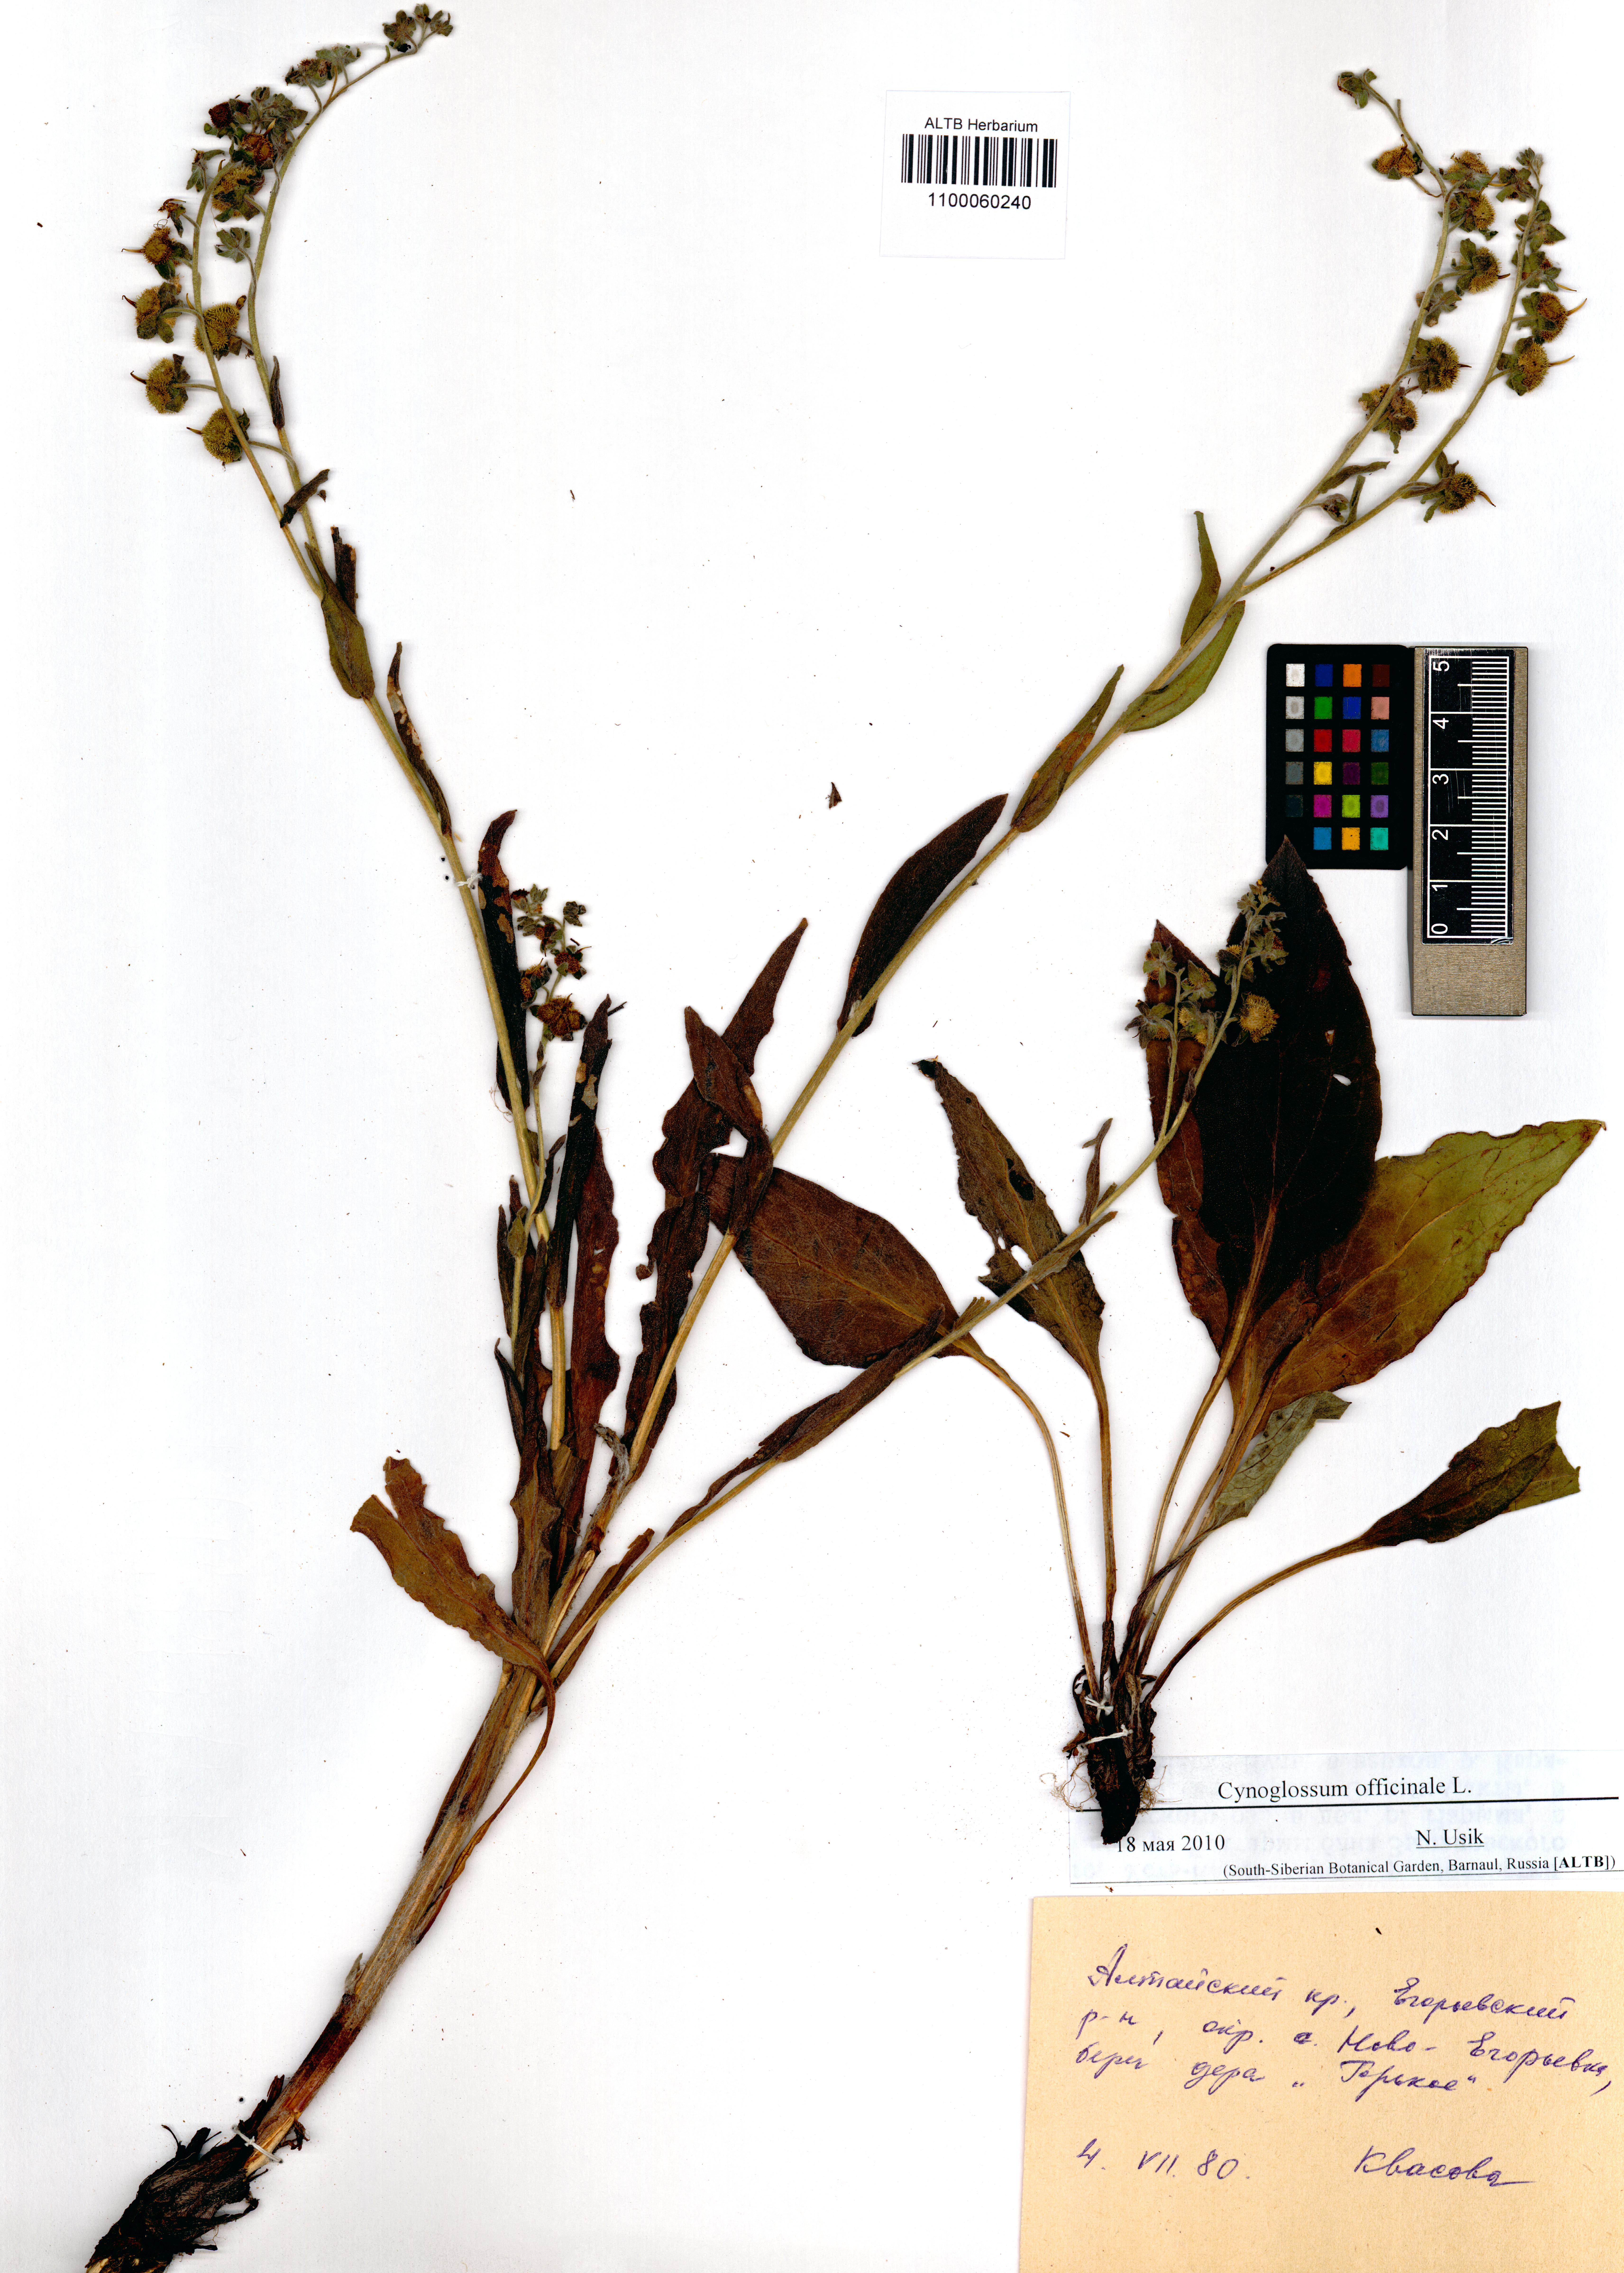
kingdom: Plantae
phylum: Tracheophyta
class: Magnoliopsida
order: Boraginales
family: Boraginaceae
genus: Cynoglossum
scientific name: Cynoglossum officinale
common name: Hound's-tongue
